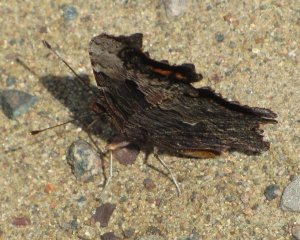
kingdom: Animalia
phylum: Arthropoda
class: Insecta
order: Lepidoptera
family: Nymphalidae
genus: Polygonia
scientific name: Polygonia progne
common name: Gray Comma
